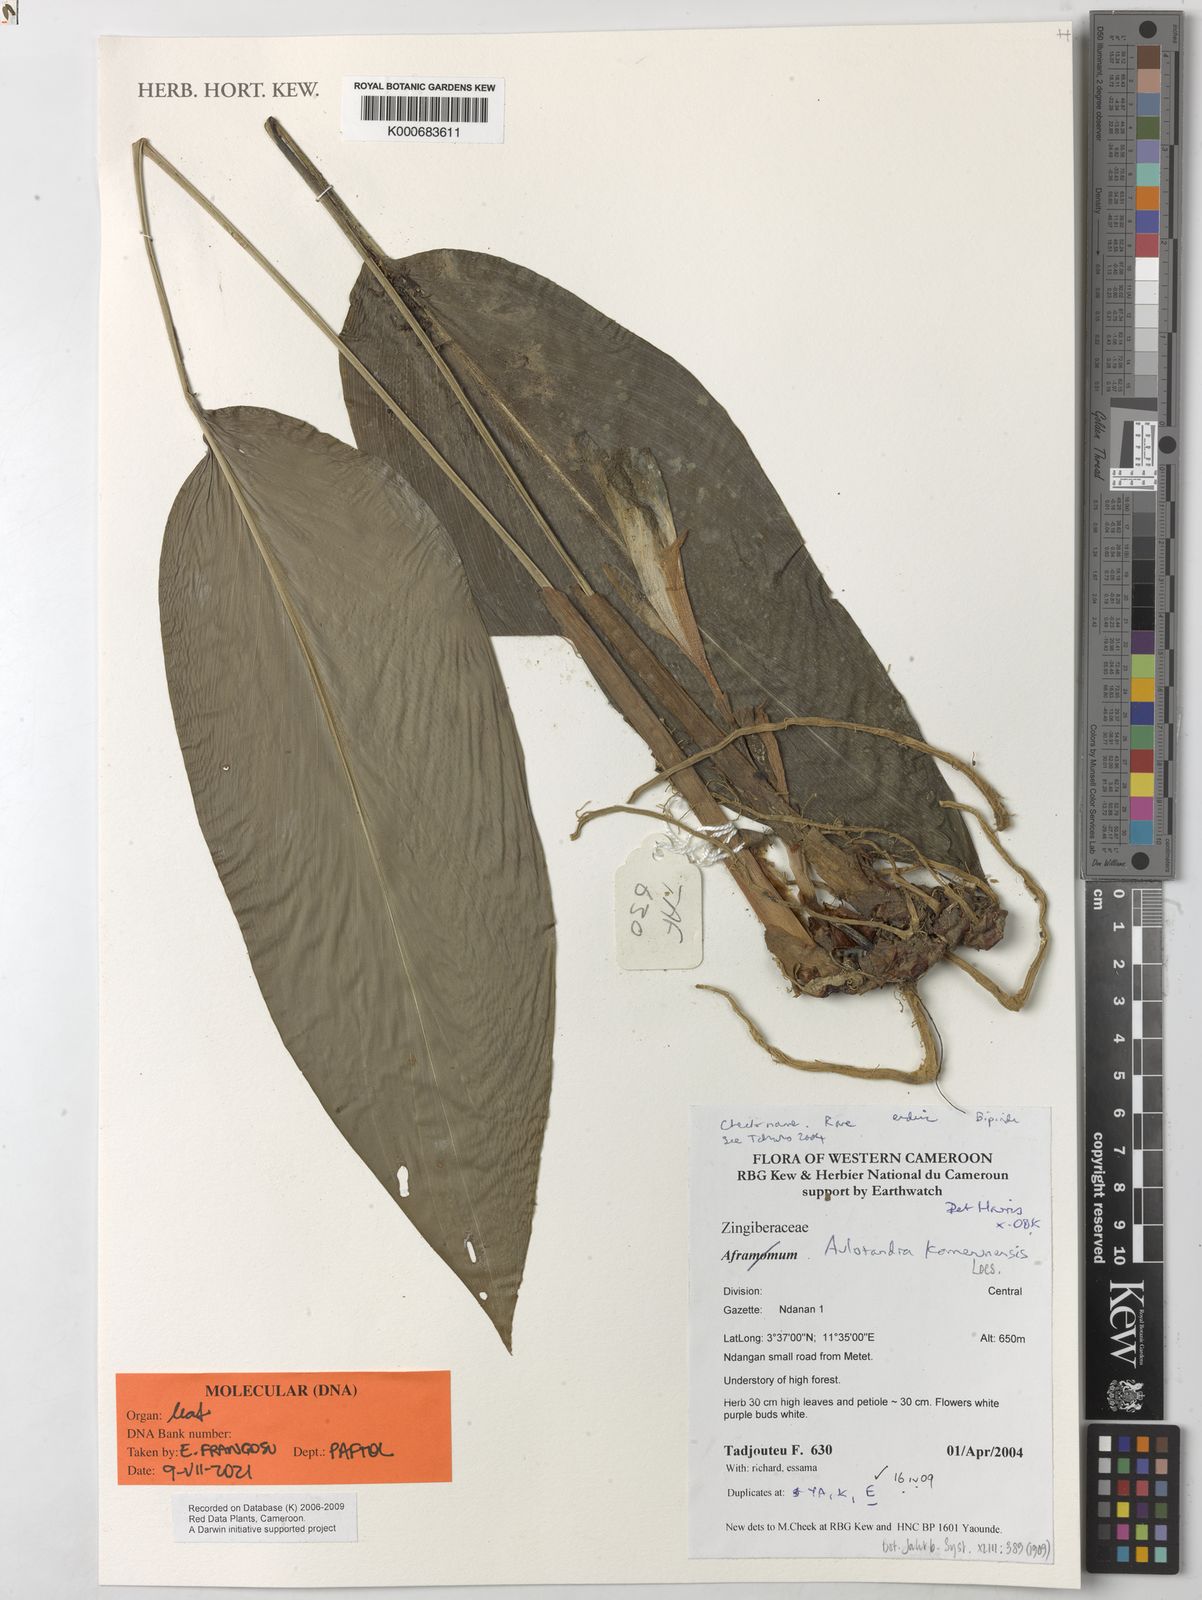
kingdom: Plantae
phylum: Tracheophyta
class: Liliopsida
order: Zingiberales
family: Zingiberaceae
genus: Aulotandra
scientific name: Aulotandra kamerunensis
